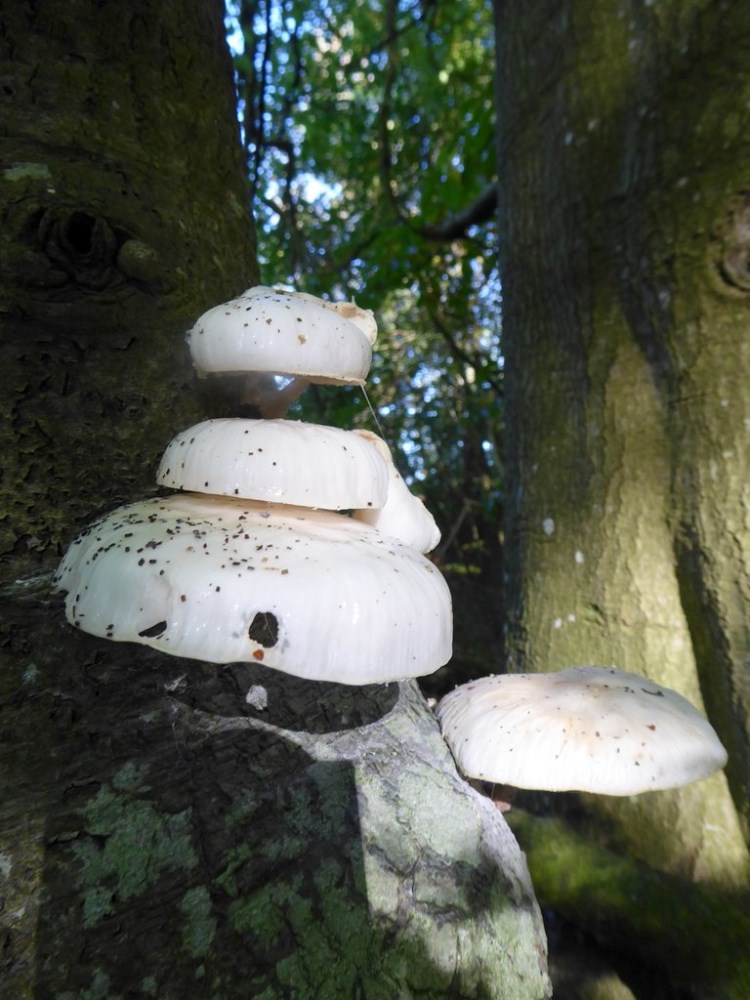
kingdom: Fungi
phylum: Basidiomycota
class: Agaricomycetes
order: Agaricales
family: Physalacriaceae
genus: Mucidula
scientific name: Mucidula mucida
